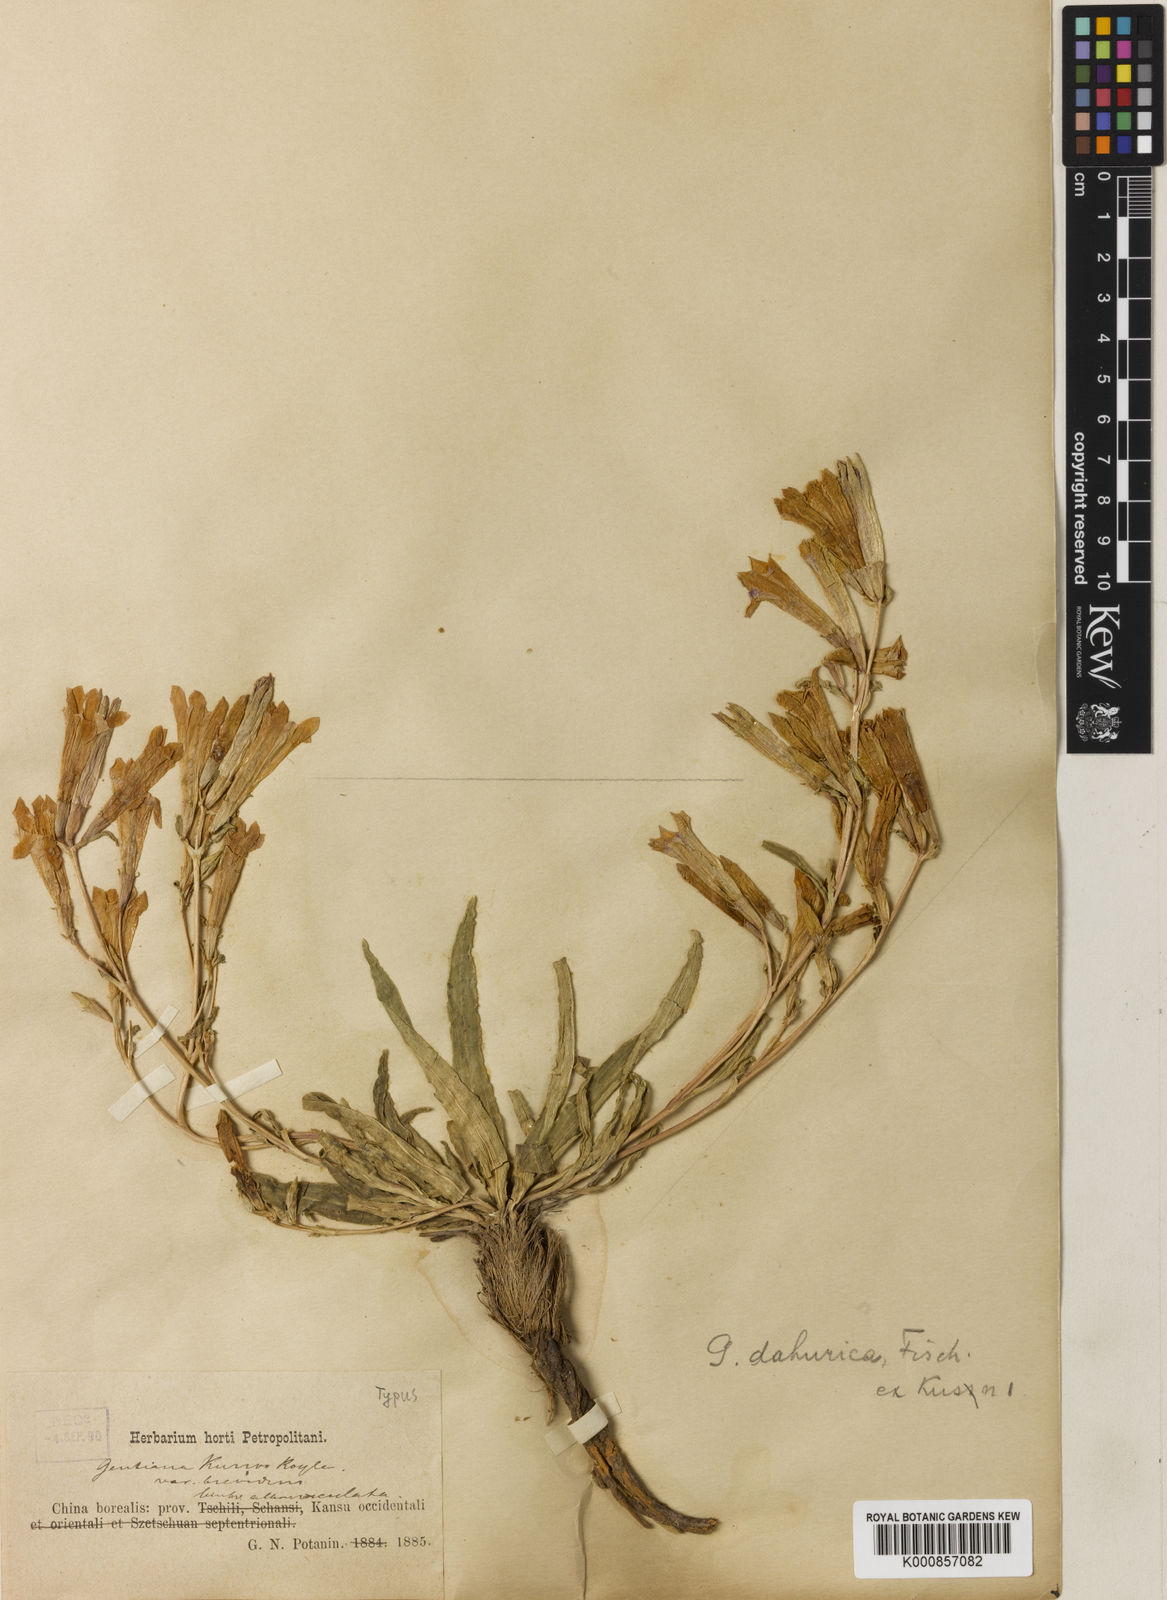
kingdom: Plantae
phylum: Tracheophyta
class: Magnoliopsida
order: Gentianales
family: Gentianaceae
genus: Gentiana
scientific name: Gentiana dahurica
